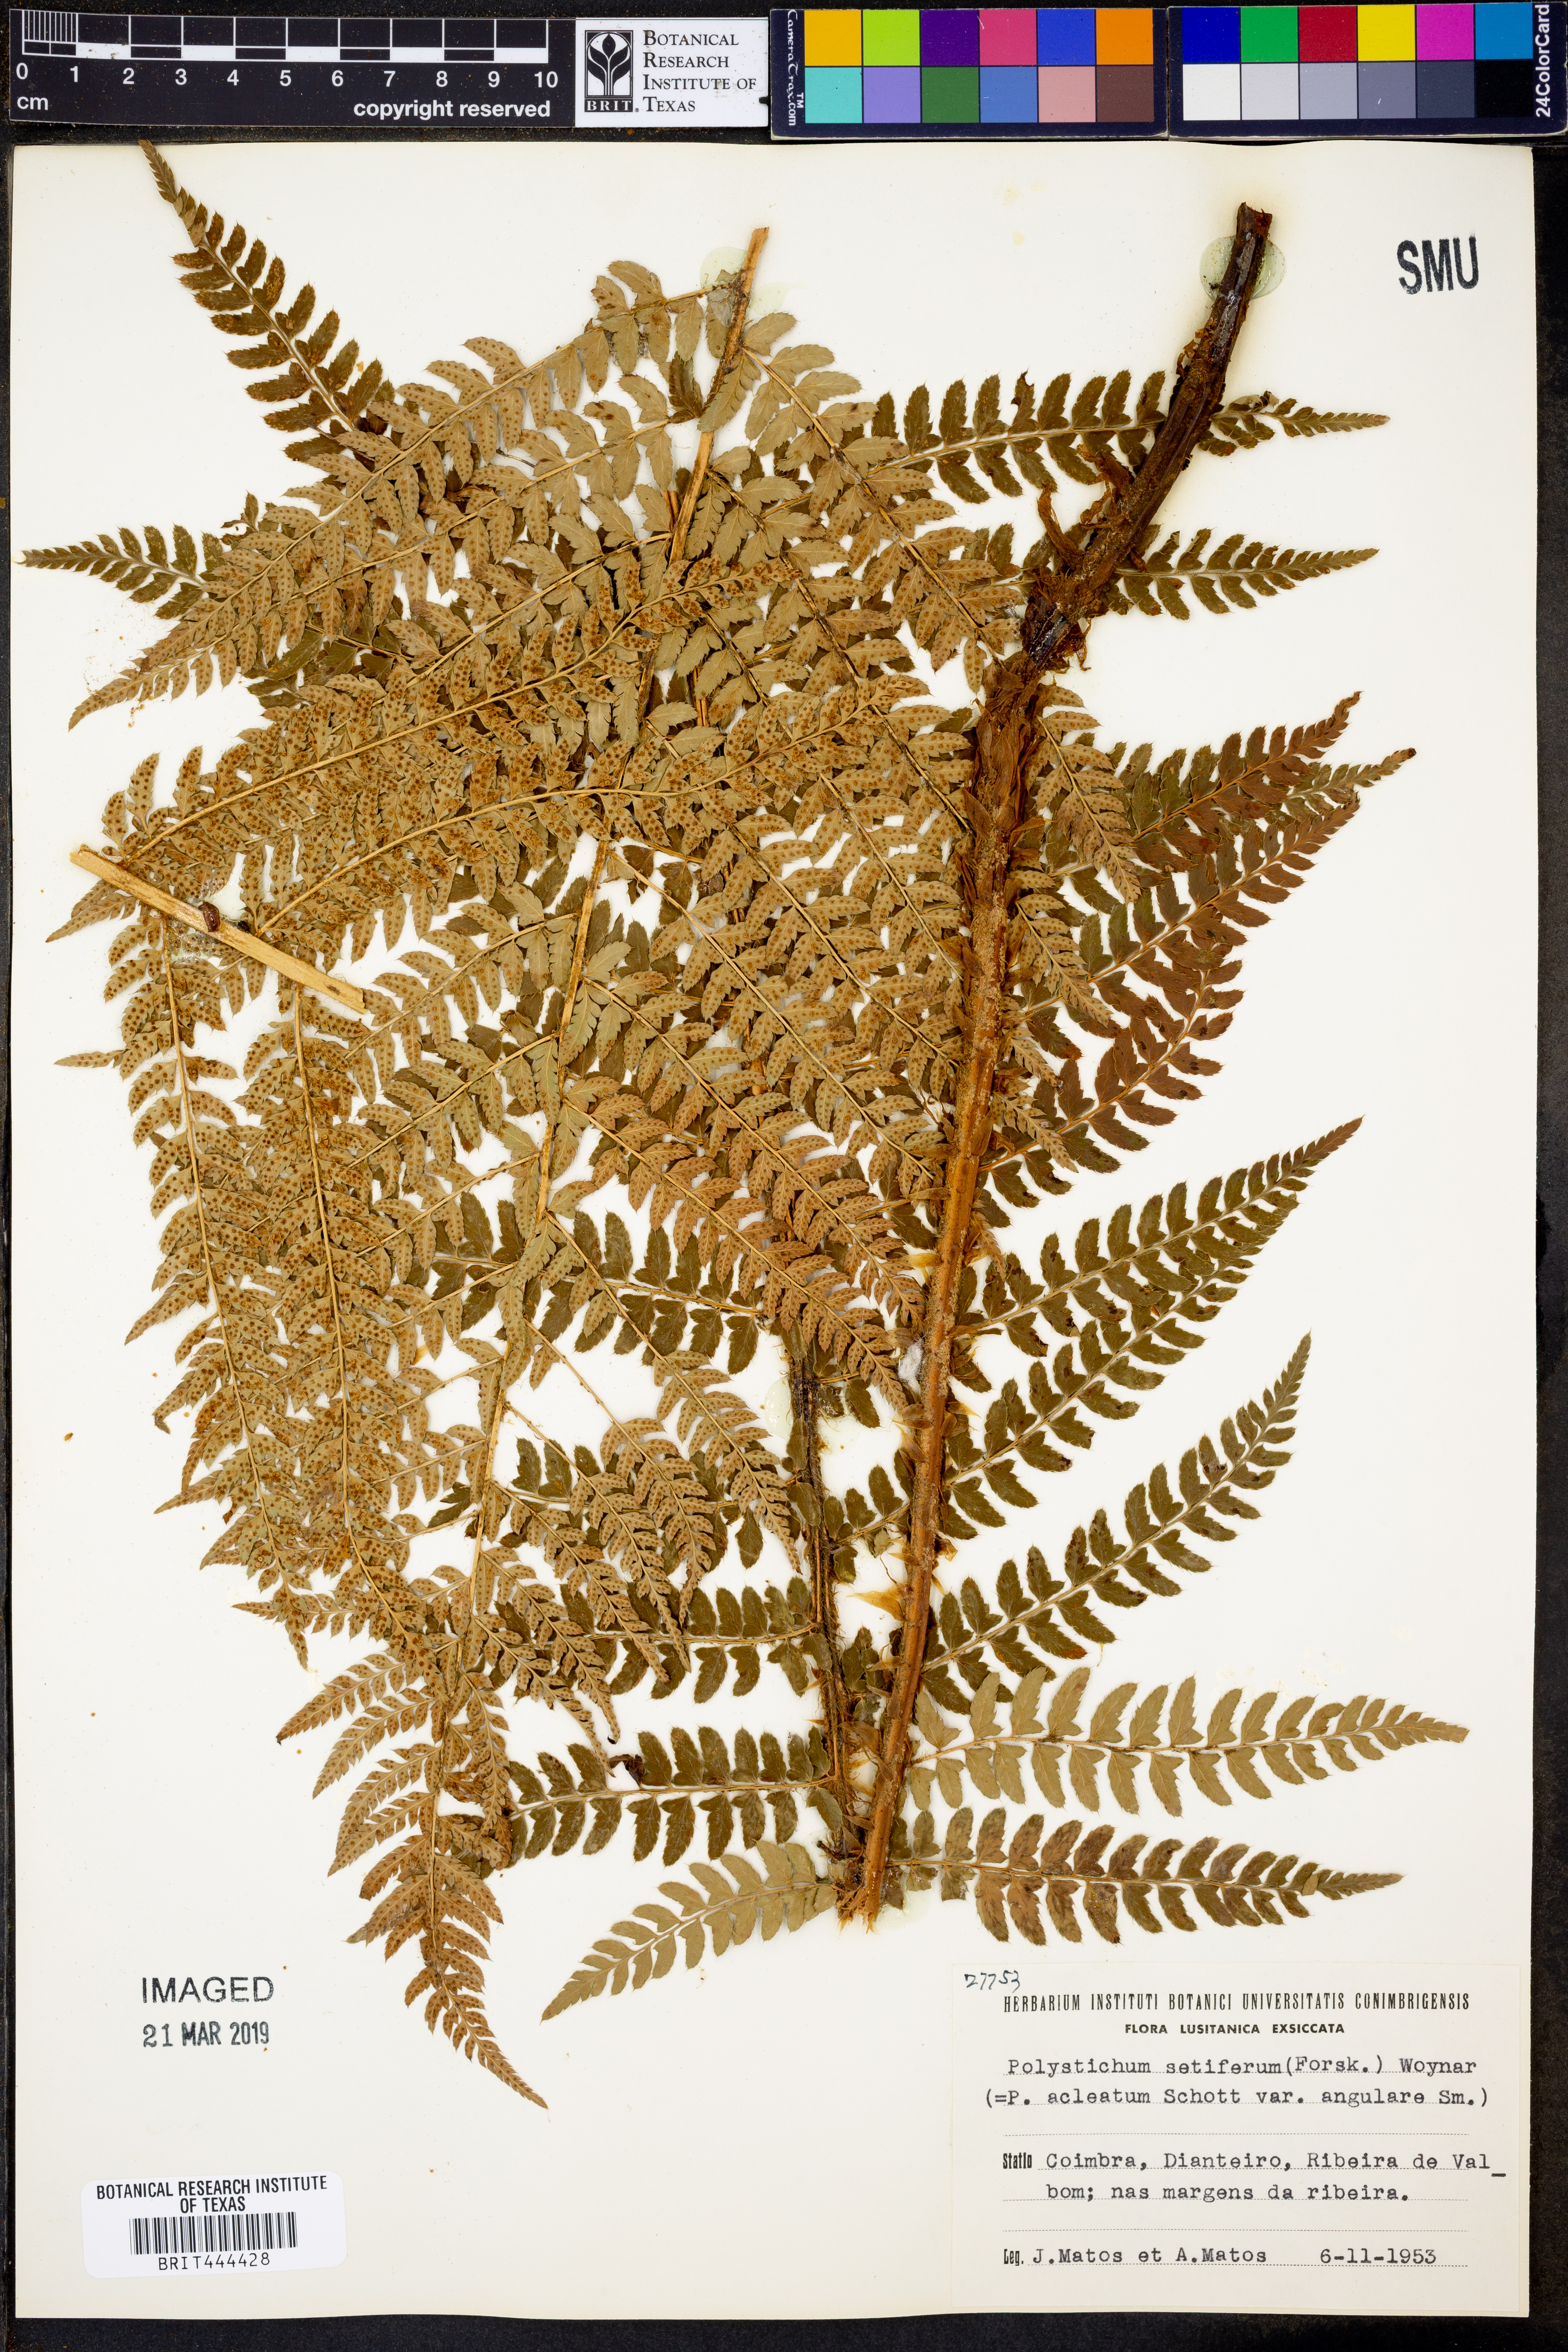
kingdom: Plantae
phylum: Tracheophyta
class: Polypodiopsida
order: Polypodiales
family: Dryopteridaceae
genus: Polystichum
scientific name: Polystichum setiferum
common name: Soft shield-fern
